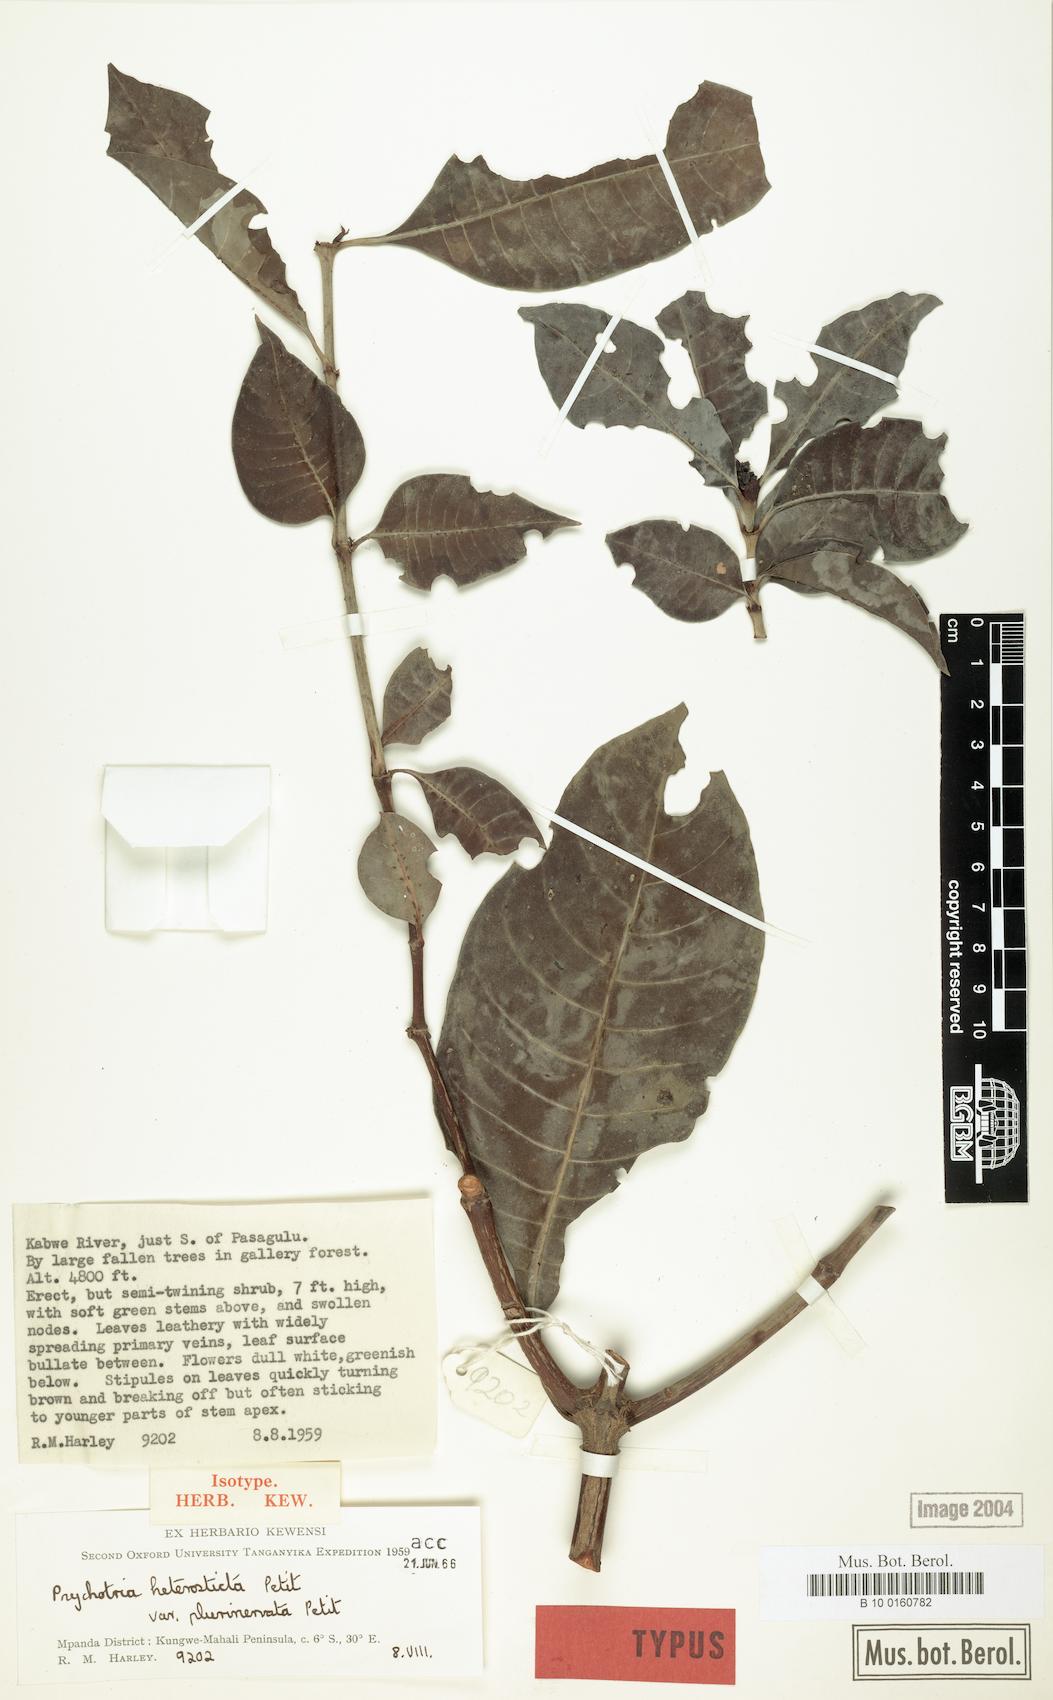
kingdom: Plantae
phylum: Tracheophyta
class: Magnoliopsida
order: Gentianales
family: Rubiaceae
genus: Psychotria
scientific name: Psychotria heterosticta
